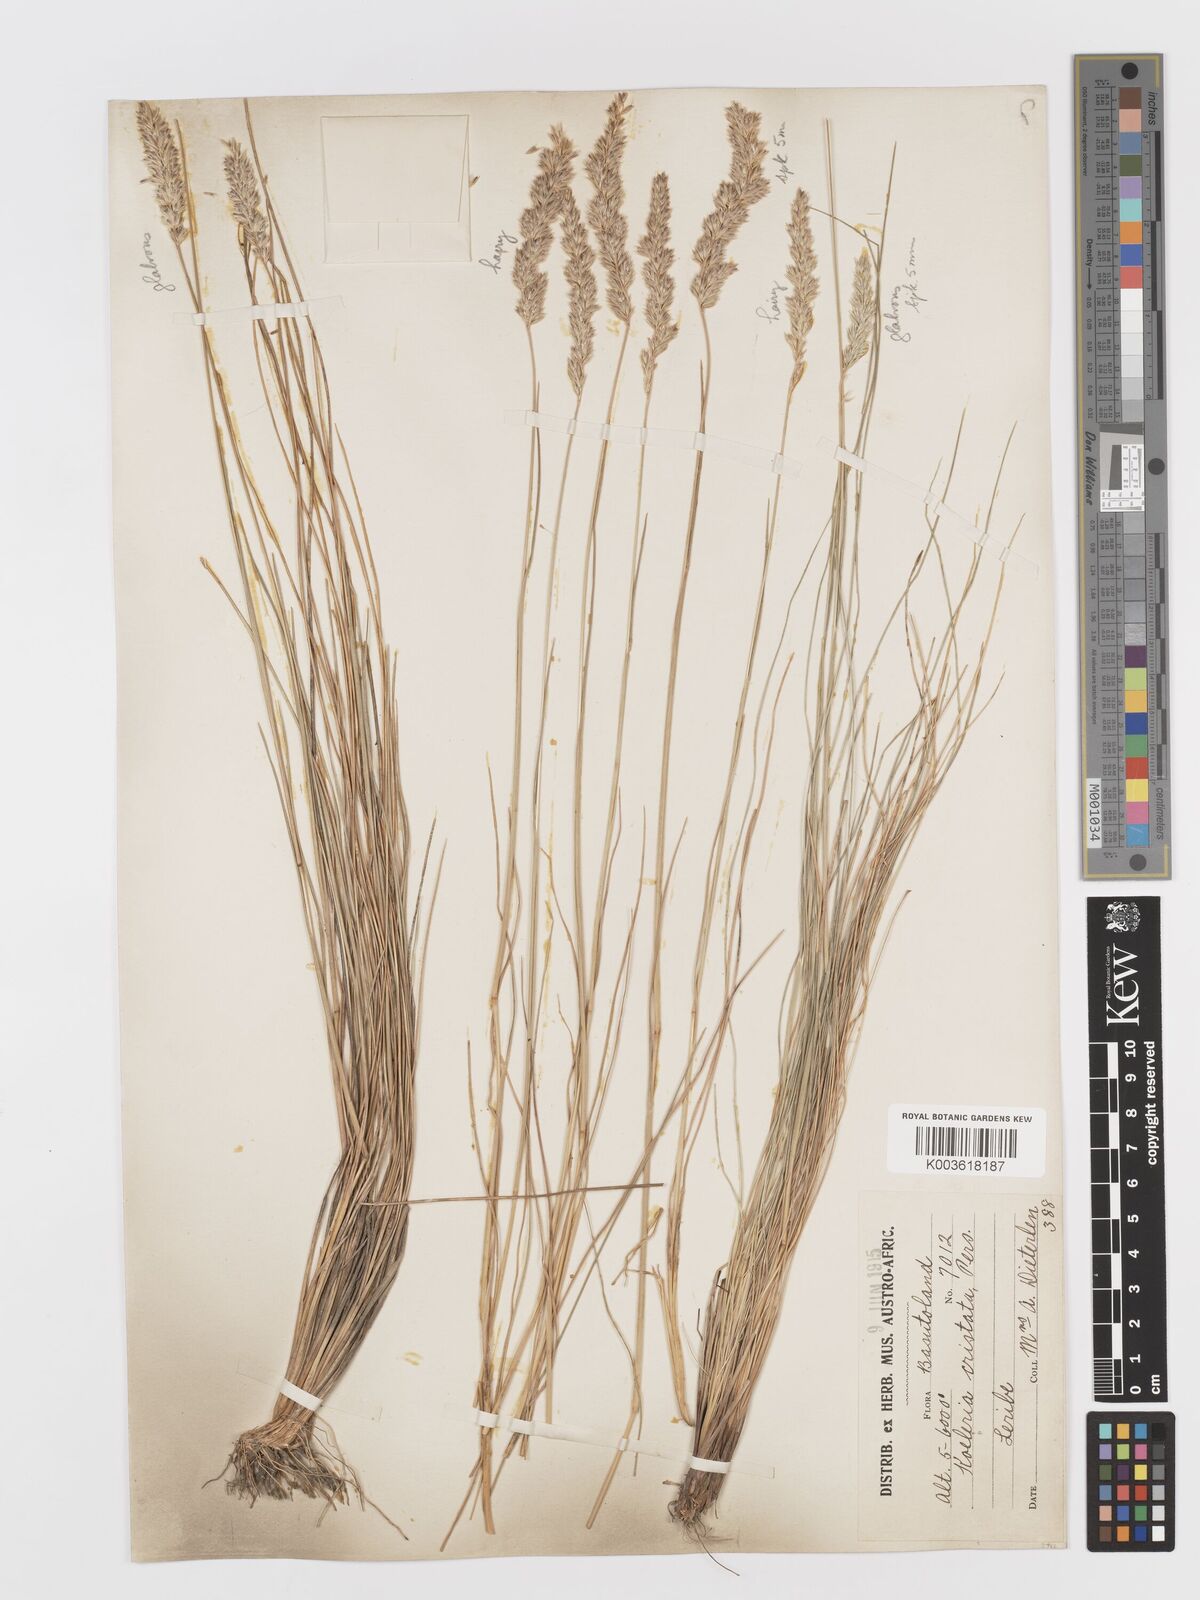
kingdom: Plantae
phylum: Tracheophyta
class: Liliopsida
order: Poales
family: Poaceae
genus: Koeleria
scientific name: Koeleria capensis
